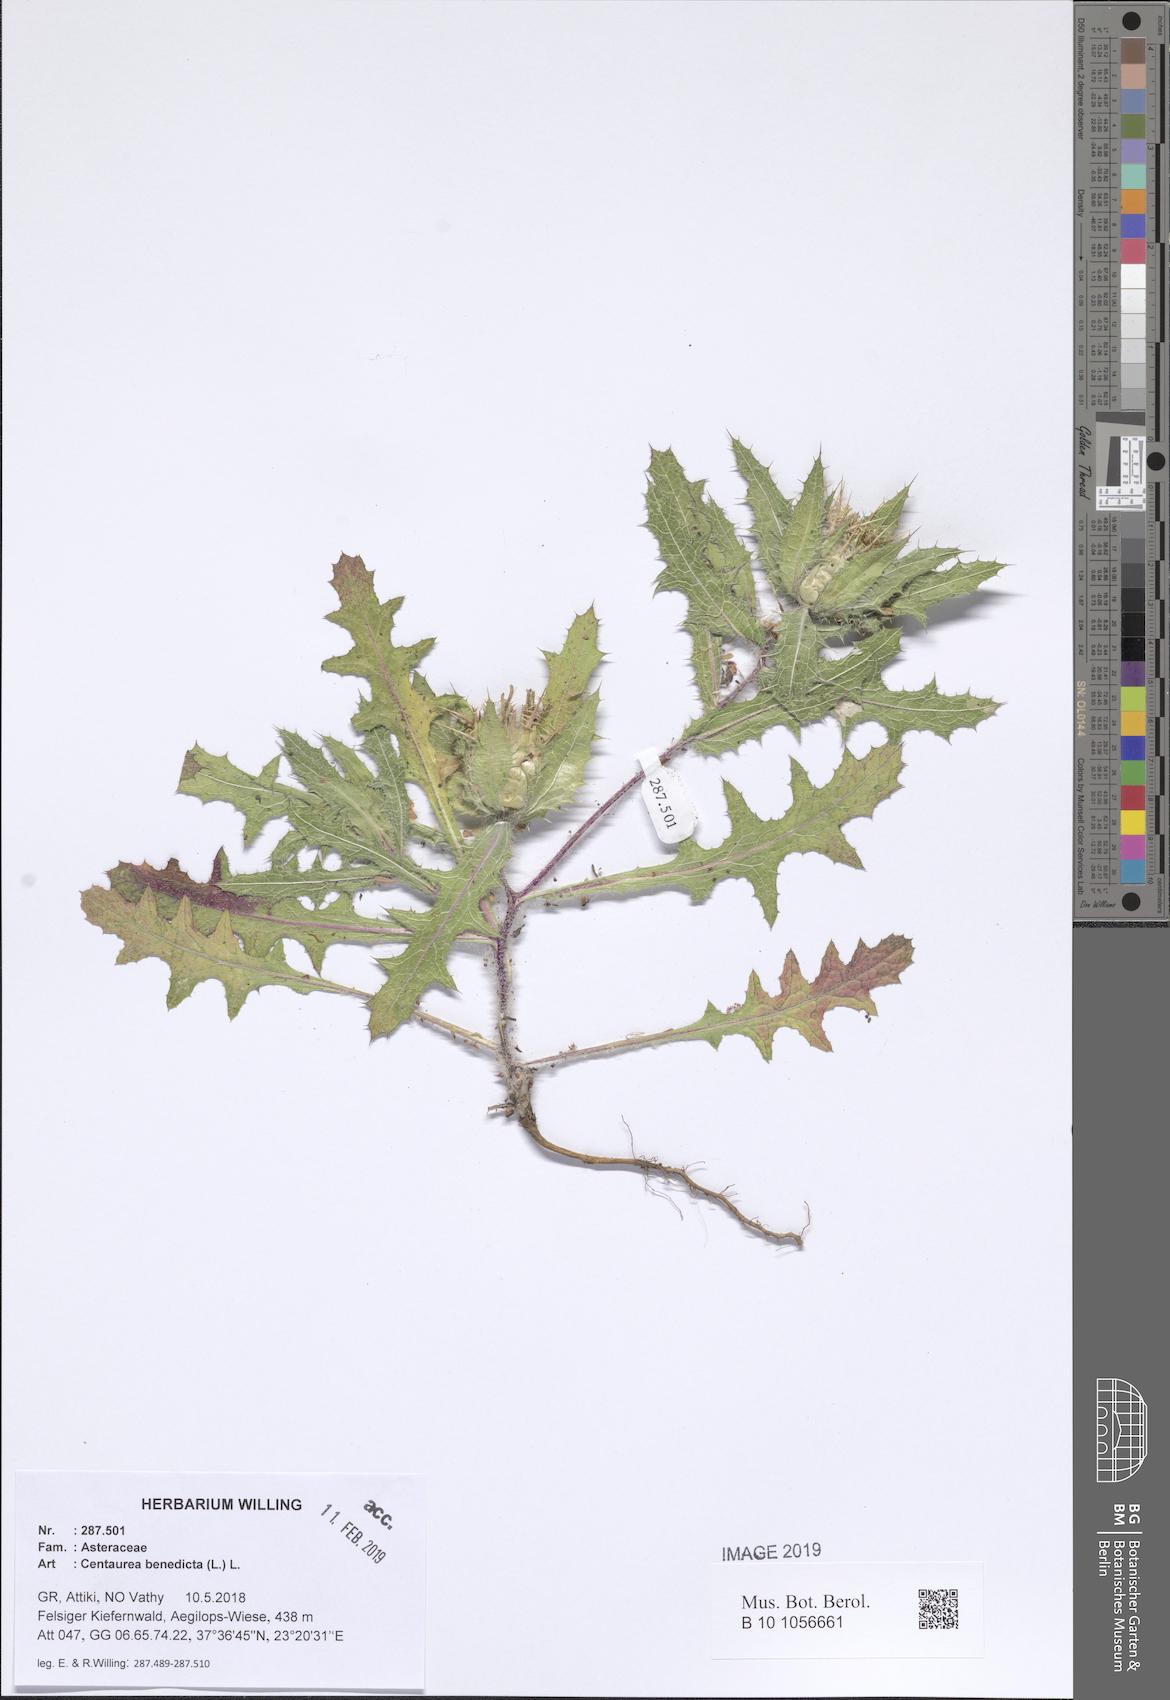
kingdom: Plantae
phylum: Tracheophyta
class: Magnoliopsida
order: Asterales
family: Asteraceae
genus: Centaurea
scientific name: Centaurea benedicta
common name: Blessed thistle
